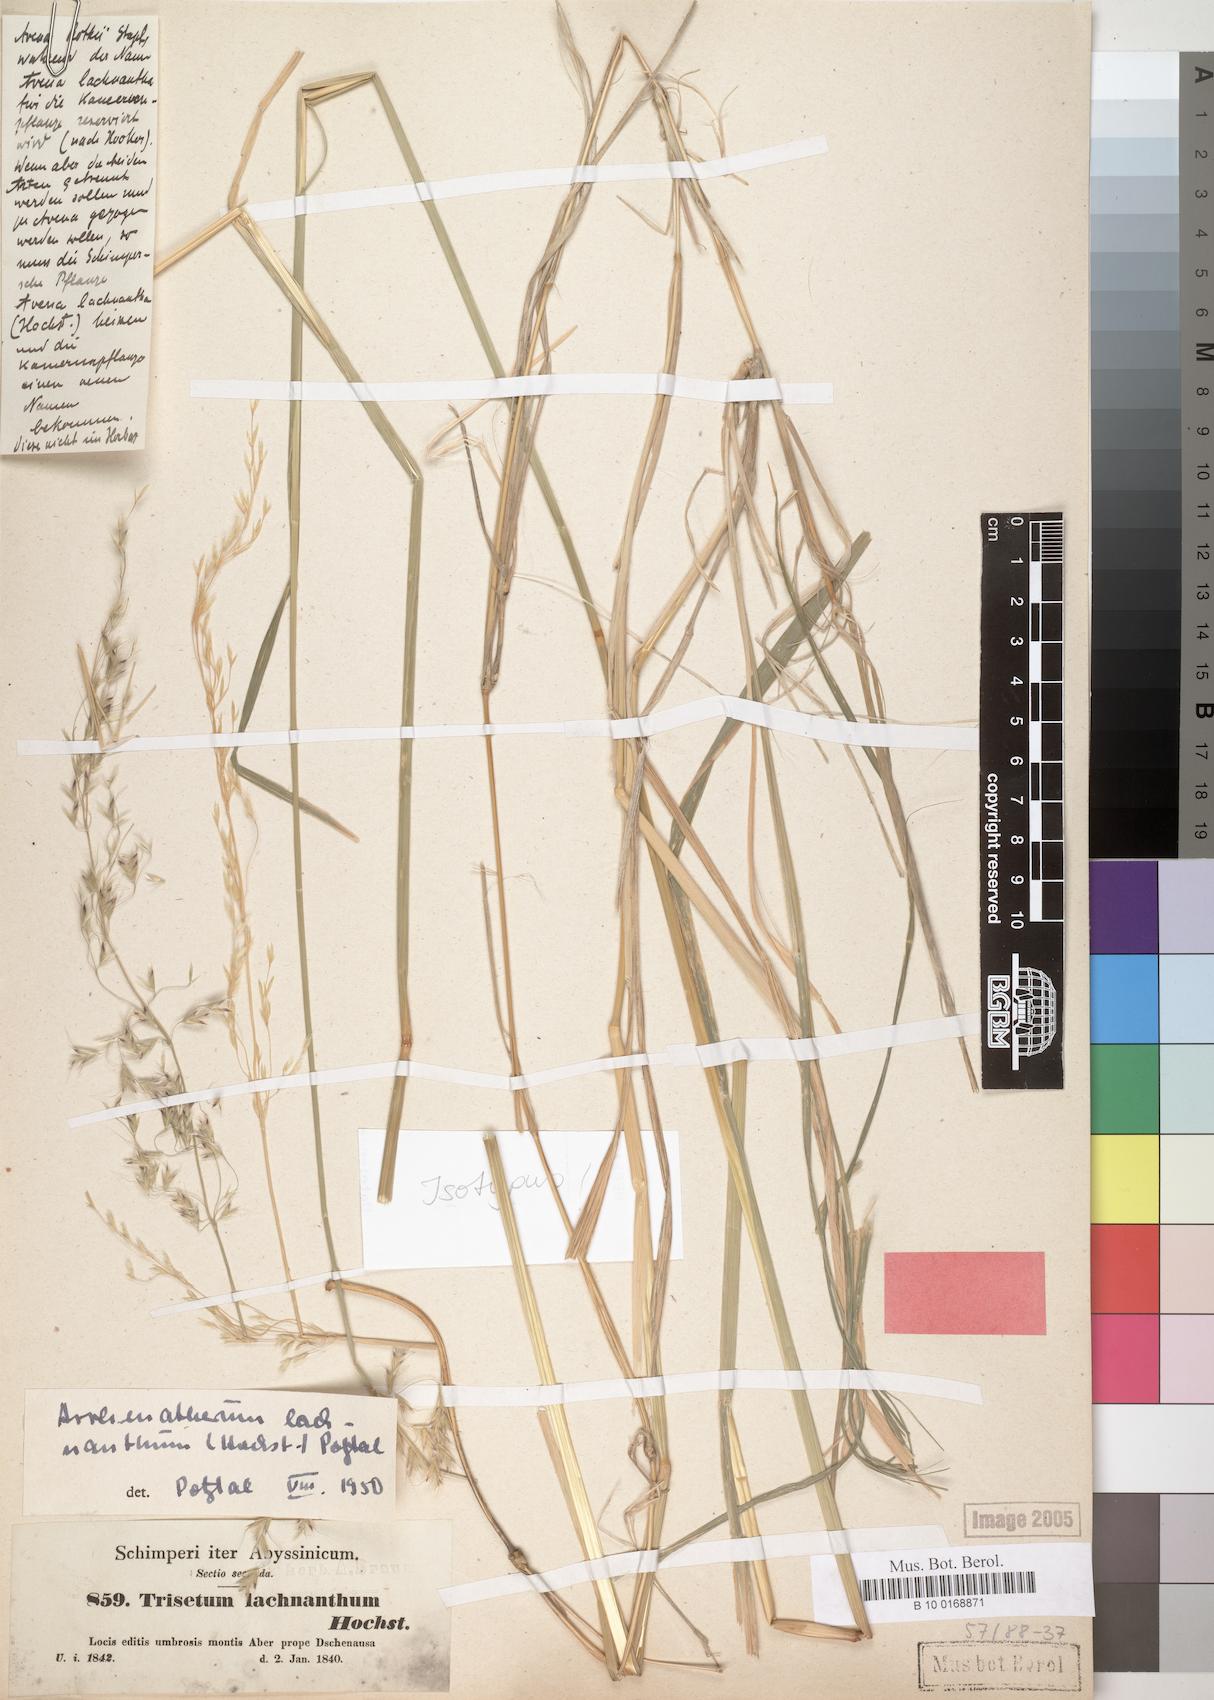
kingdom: Plantae
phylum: Tracheophyta
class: Liliopsida
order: Poales
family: Poaceae
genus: Trisetopsis
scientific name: Trisetopsis lachnantha
